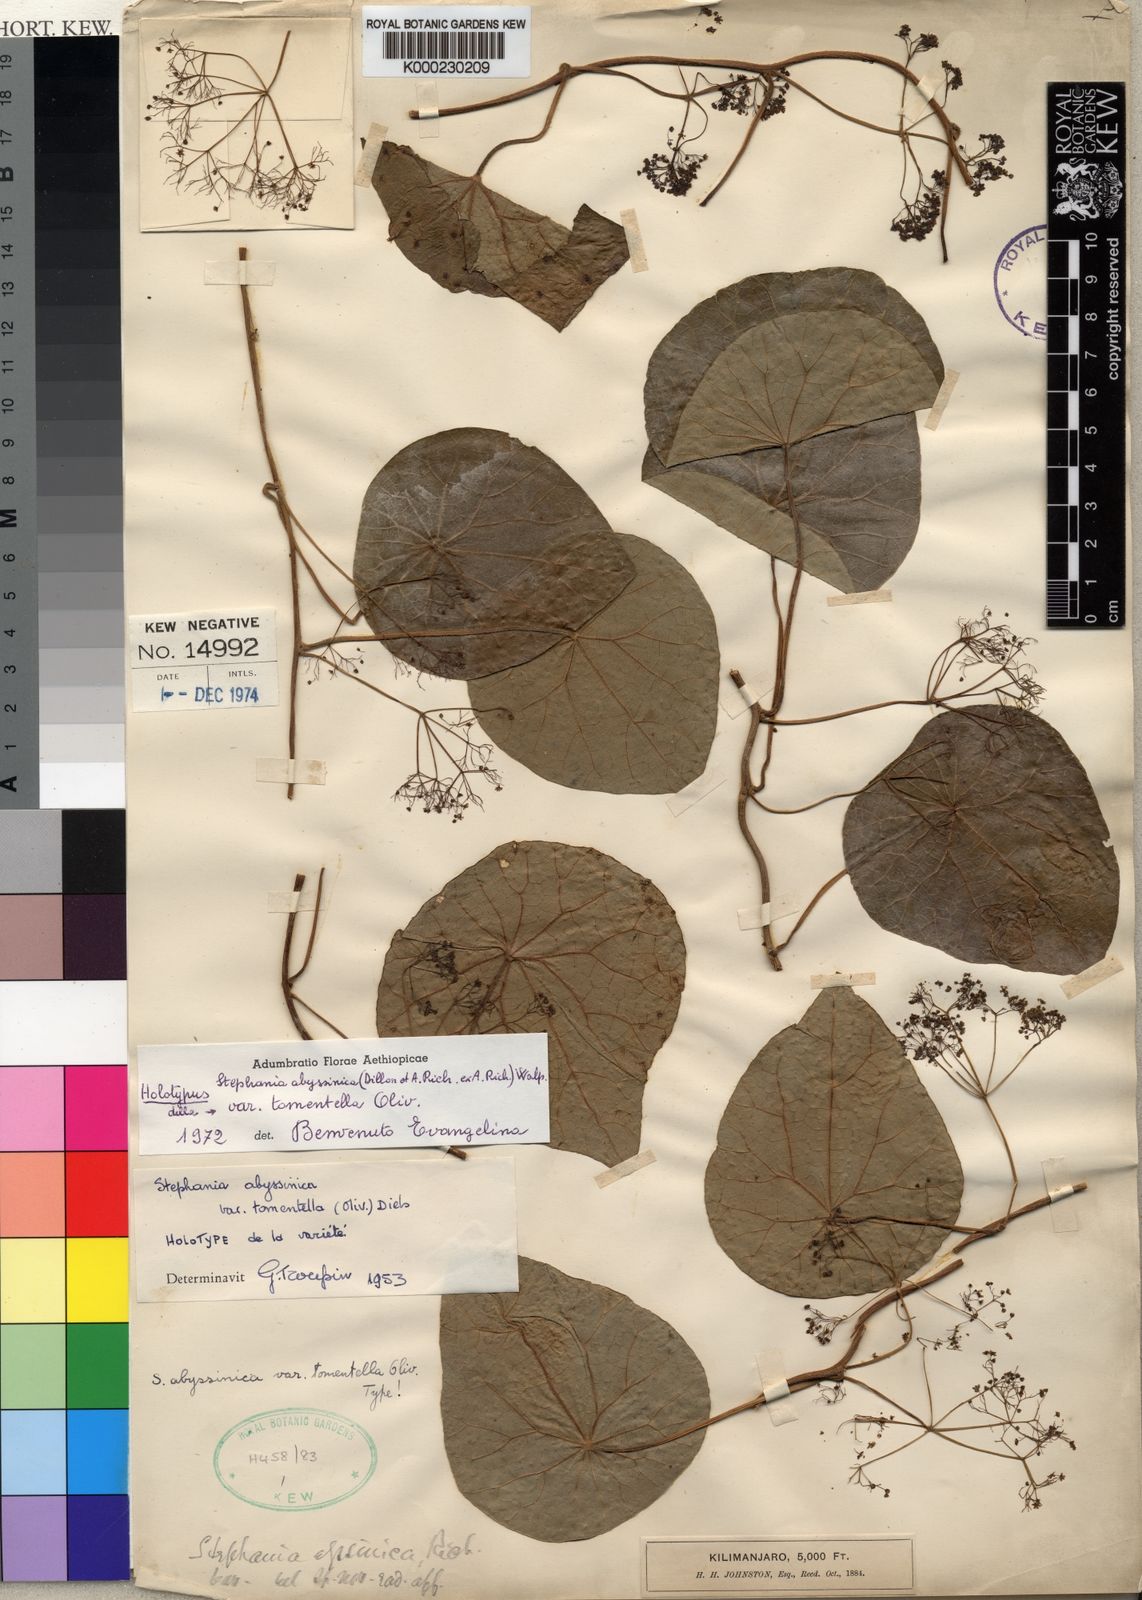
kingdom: Plantae
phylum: Tracheophyta
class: Magnoliopsida
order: Ranunculales
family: Menispermaceae
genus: Stephania
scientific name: Stephania
